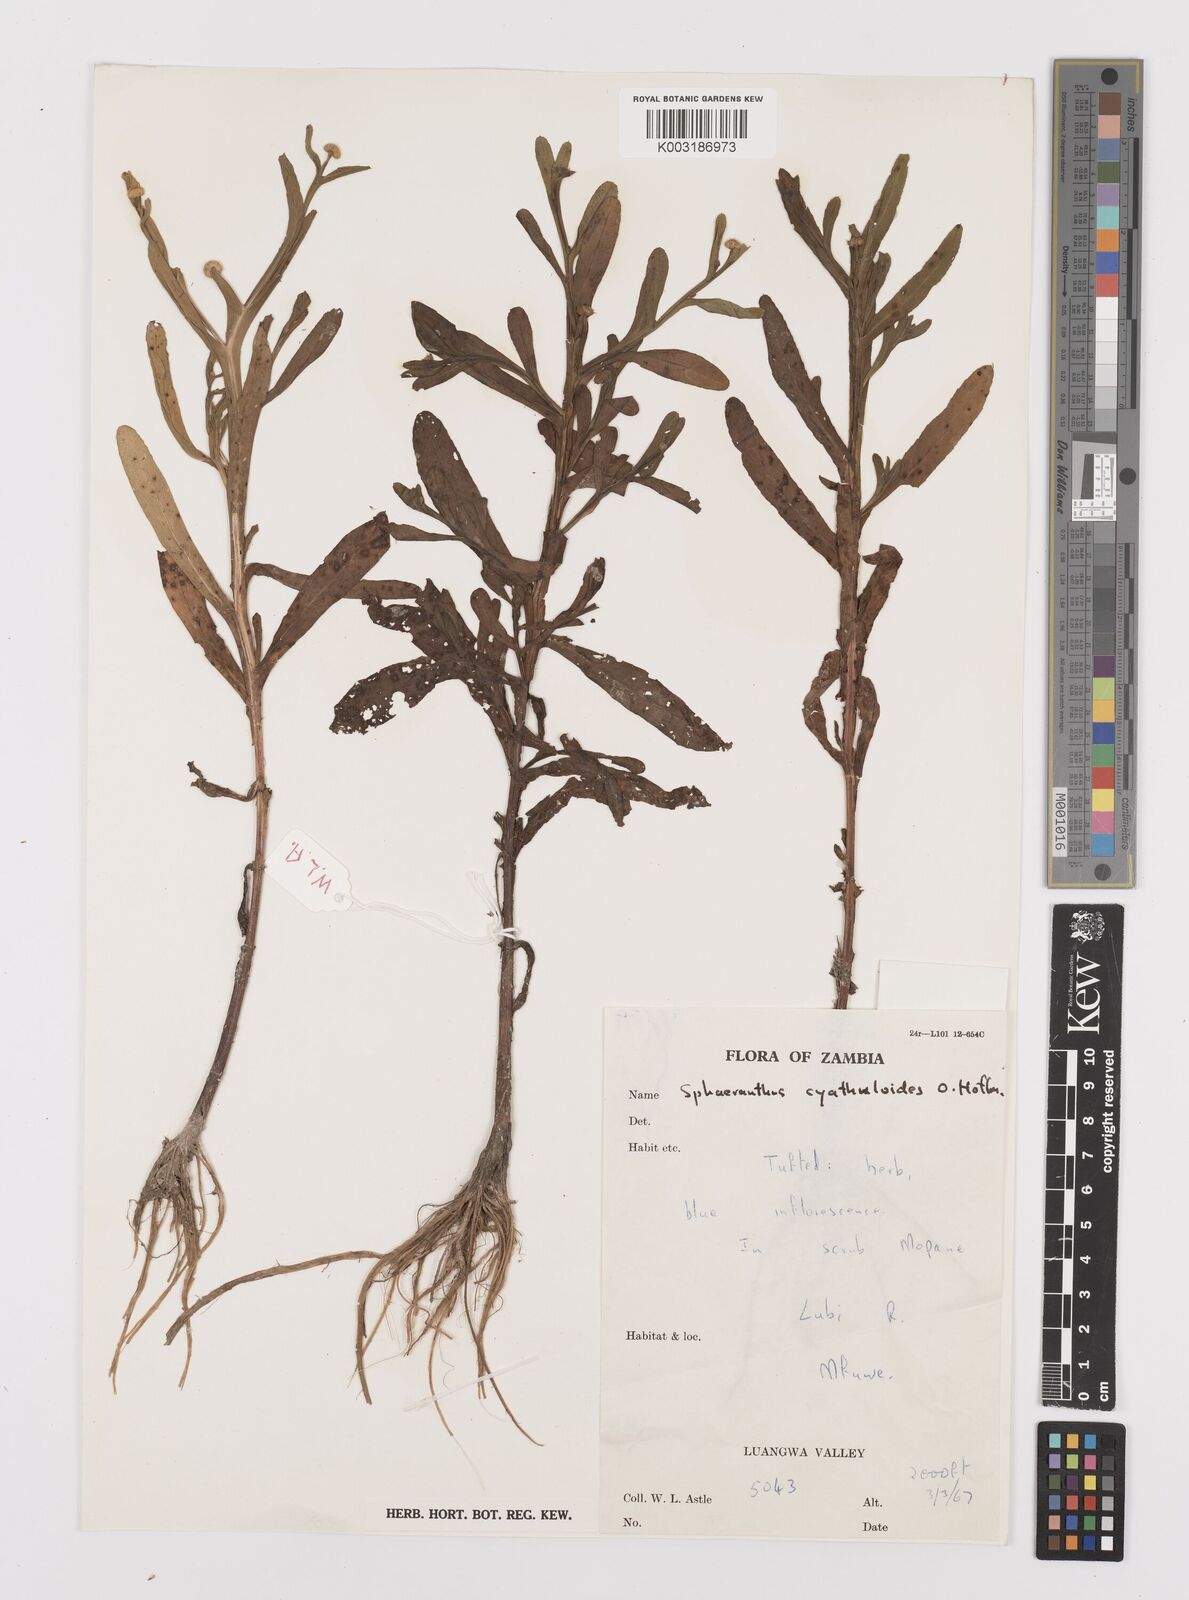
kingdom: Plantae
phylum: Tracheophyta
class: Magnoliopsida
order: Asterales
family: Asteraceae
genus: Sphaeranthus
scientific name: Sphaeranthus talbotii
